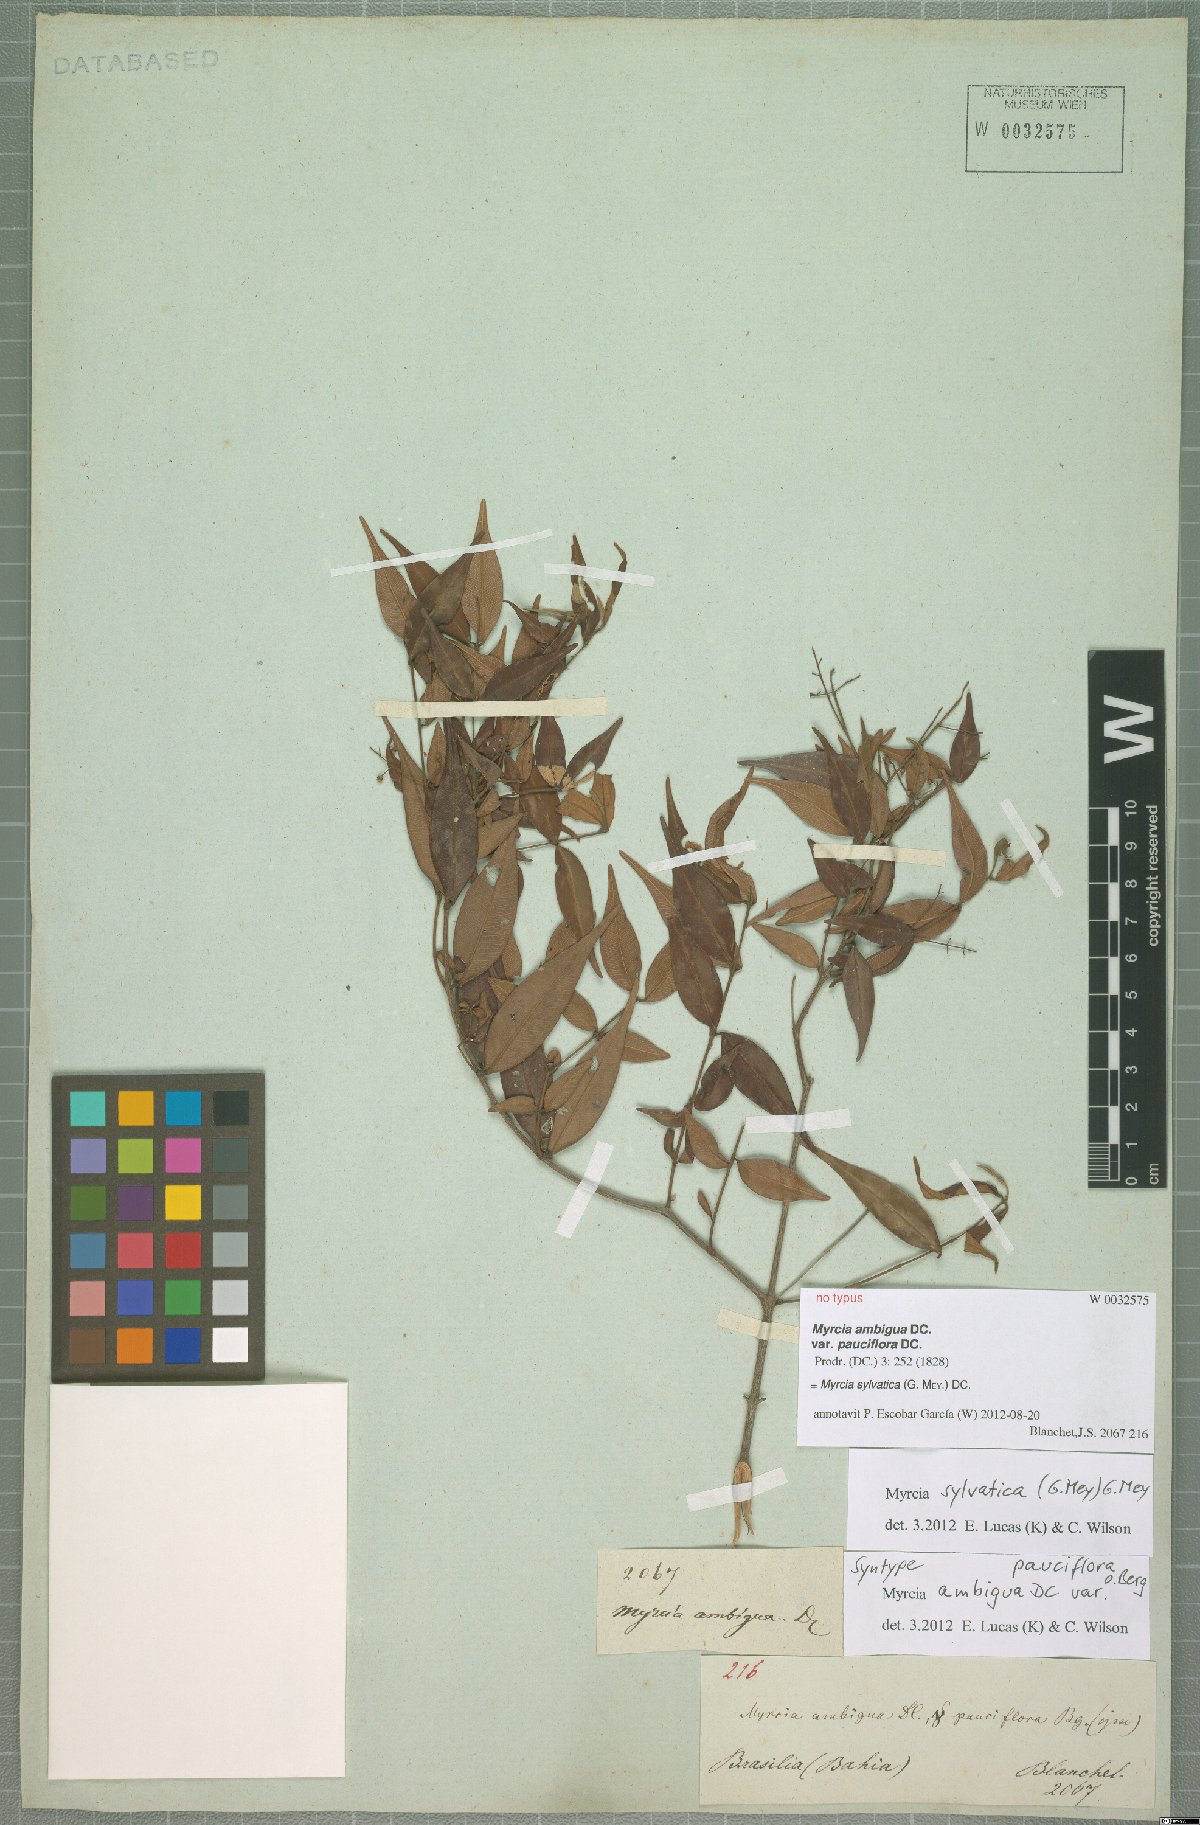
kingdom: Plantae
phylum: Tracheophyta
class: Magnoliopsida
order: Myrtales
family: Myrtaceae
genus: Myrcia
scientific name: Myrcia sylvatica
